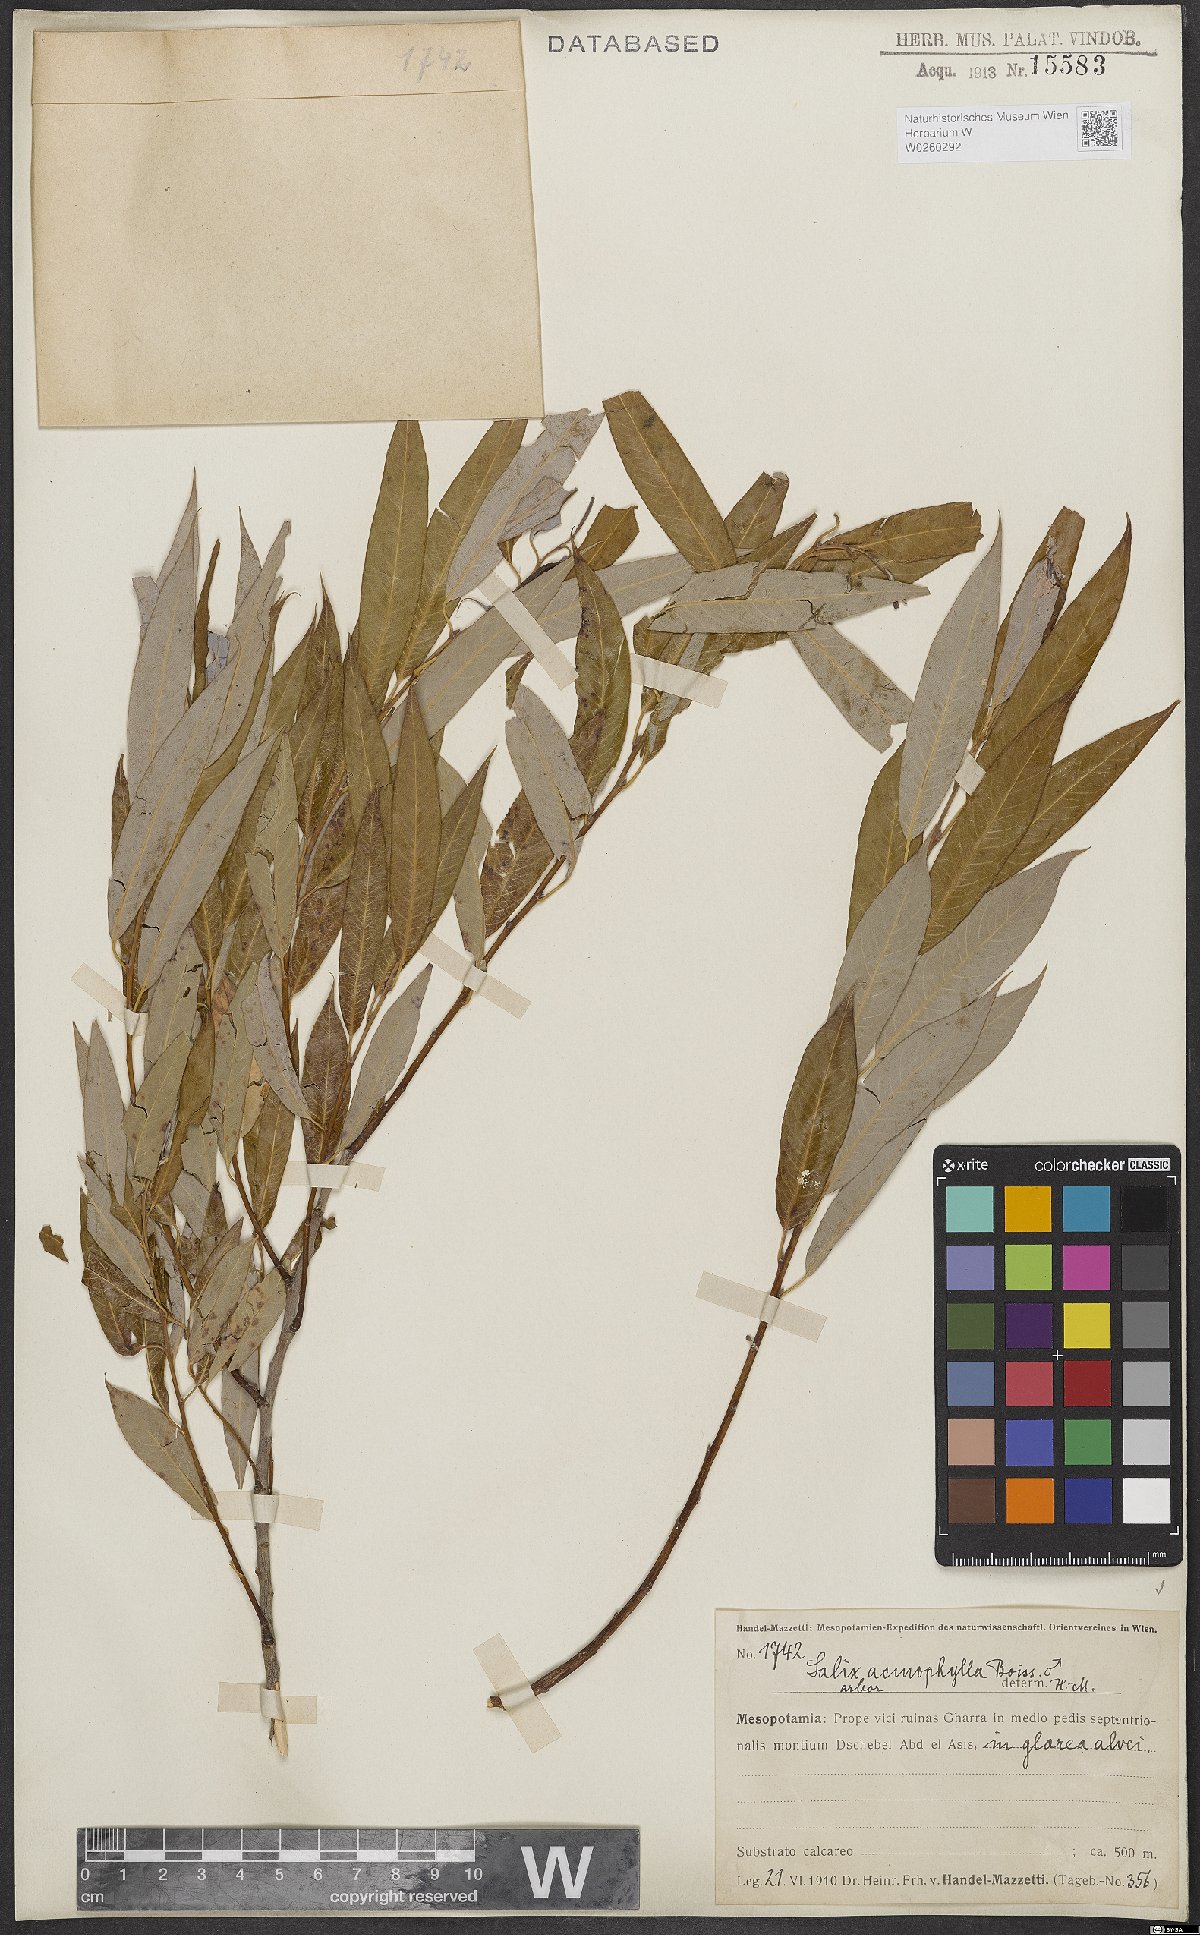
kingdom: Plantae
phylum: Tracheophyta
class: Magnoliopsida
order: Malpighiales
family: Salicaceae
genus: Salix
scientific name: Salix acmophylla
